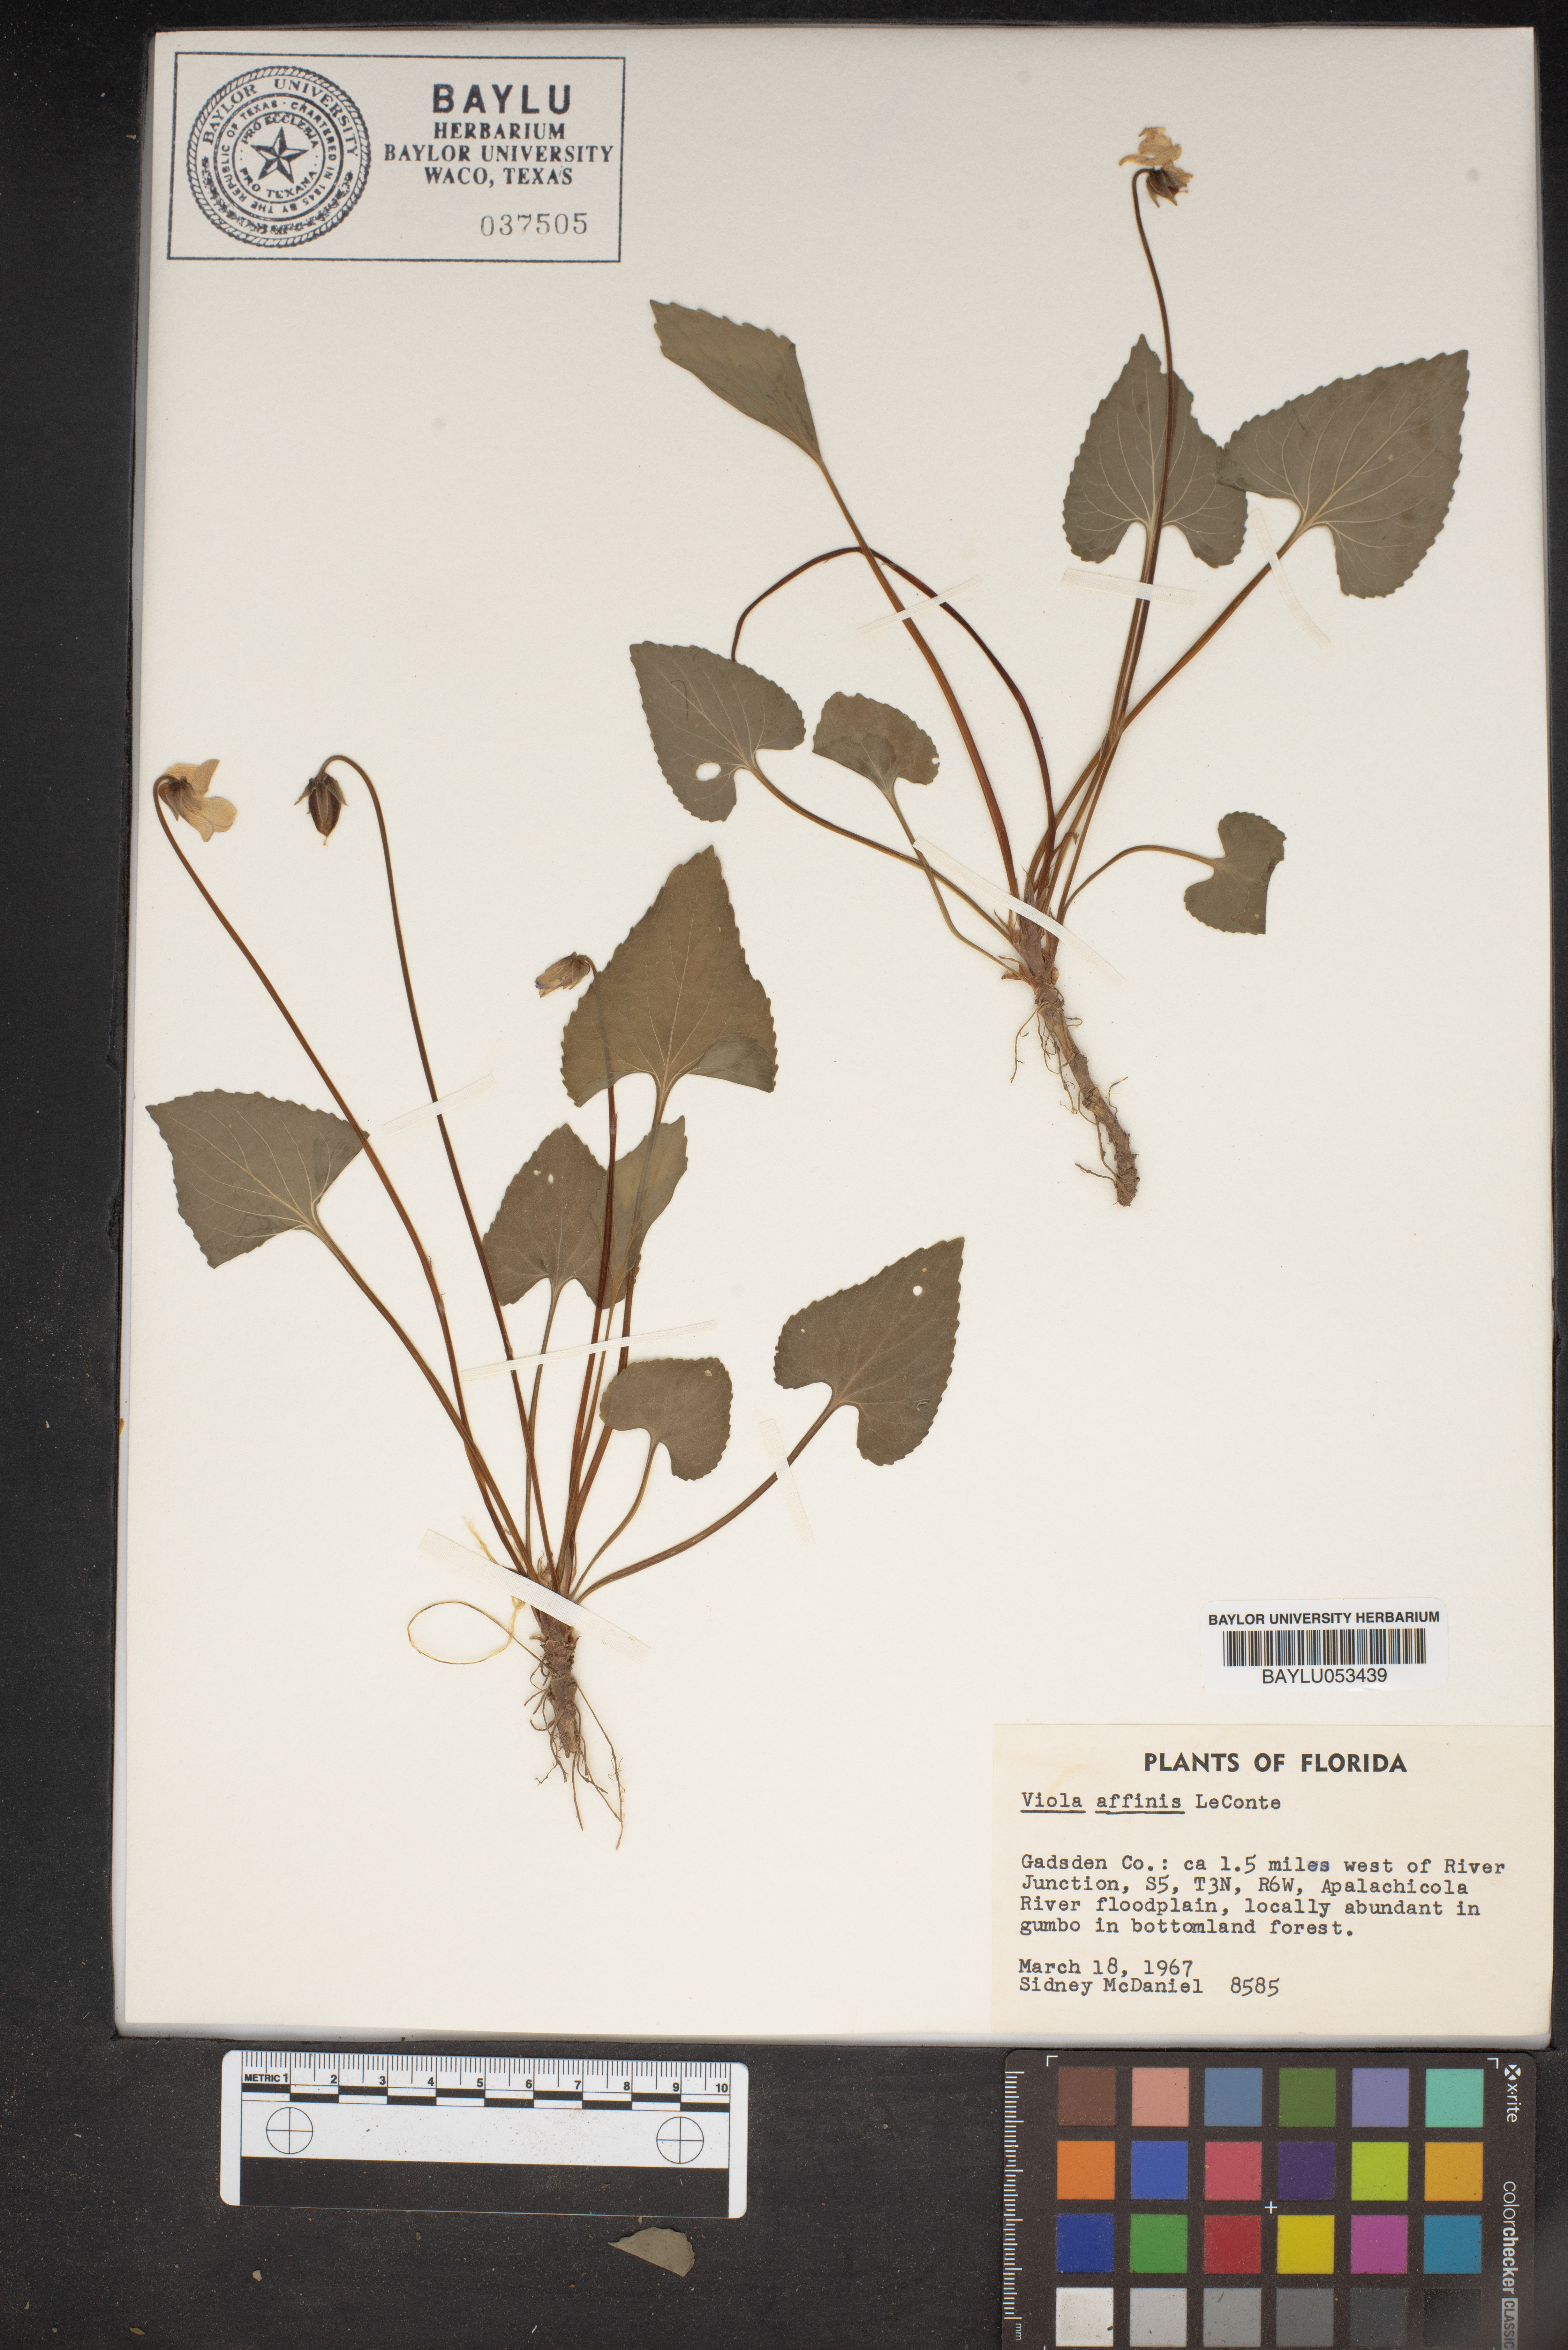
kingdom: Plantae
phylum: Tracheophyta
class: Magnoliopsida
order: Malpighiales
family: Violaceae
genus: Viola
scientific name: Viola affinis
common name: Leconte's violet
